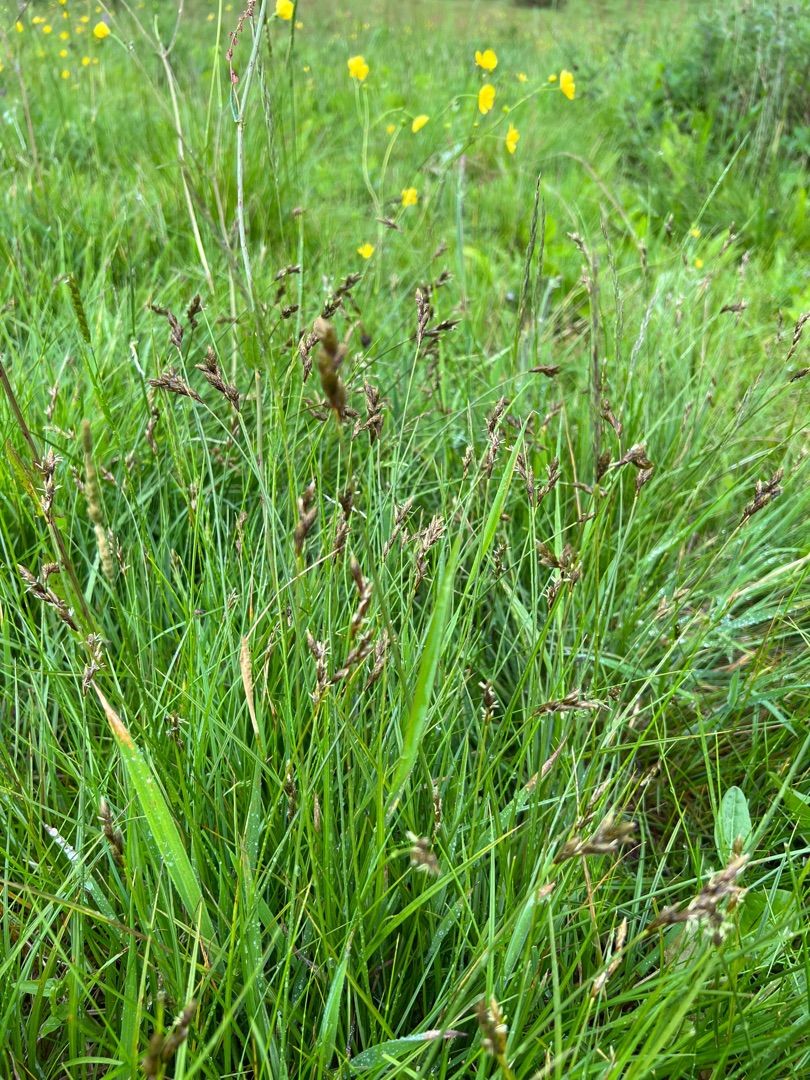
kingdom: Plantae
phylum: Tracheophyta
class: Liliopsida
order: Poales
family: Cyperaceae
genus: Carex
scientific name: Carex leporina
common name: Hare-star
